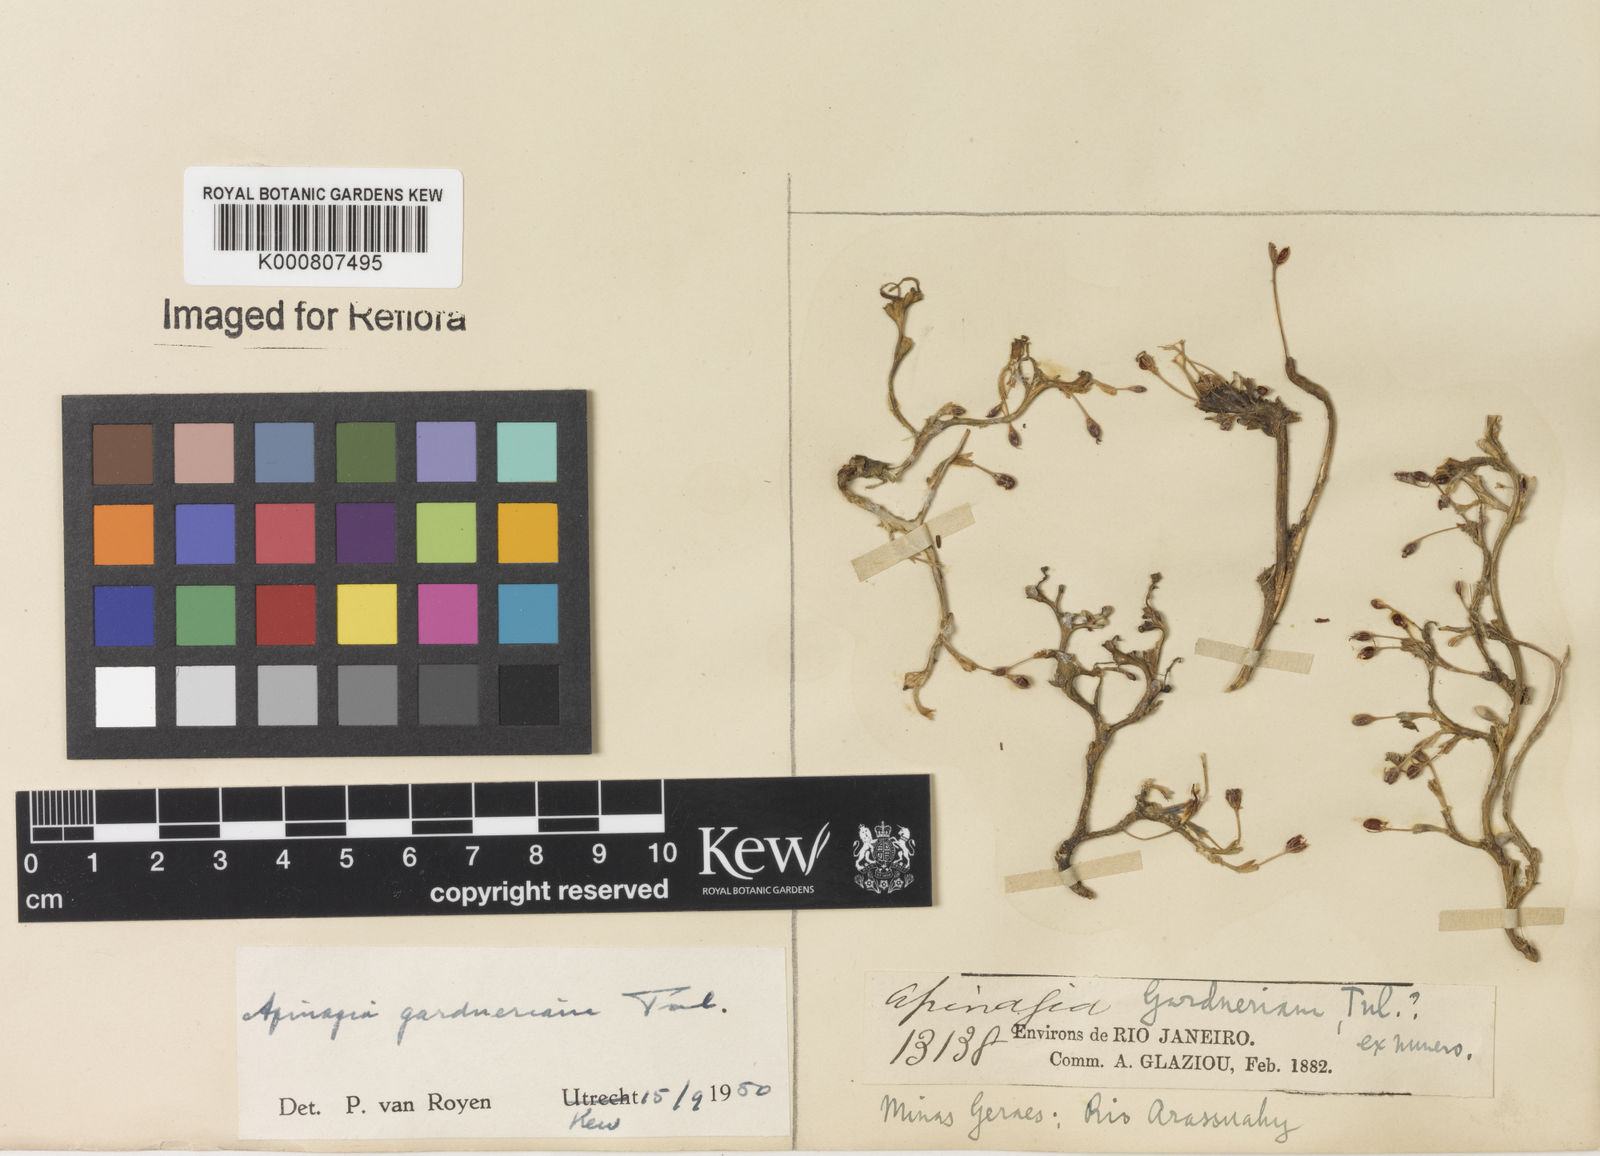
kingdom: Plantae
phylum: Tracheophyta
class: Magnoliopsida
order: Malpighiales
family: Podostemaceae
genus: Apinagia
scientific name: Apinagia gardneriana
